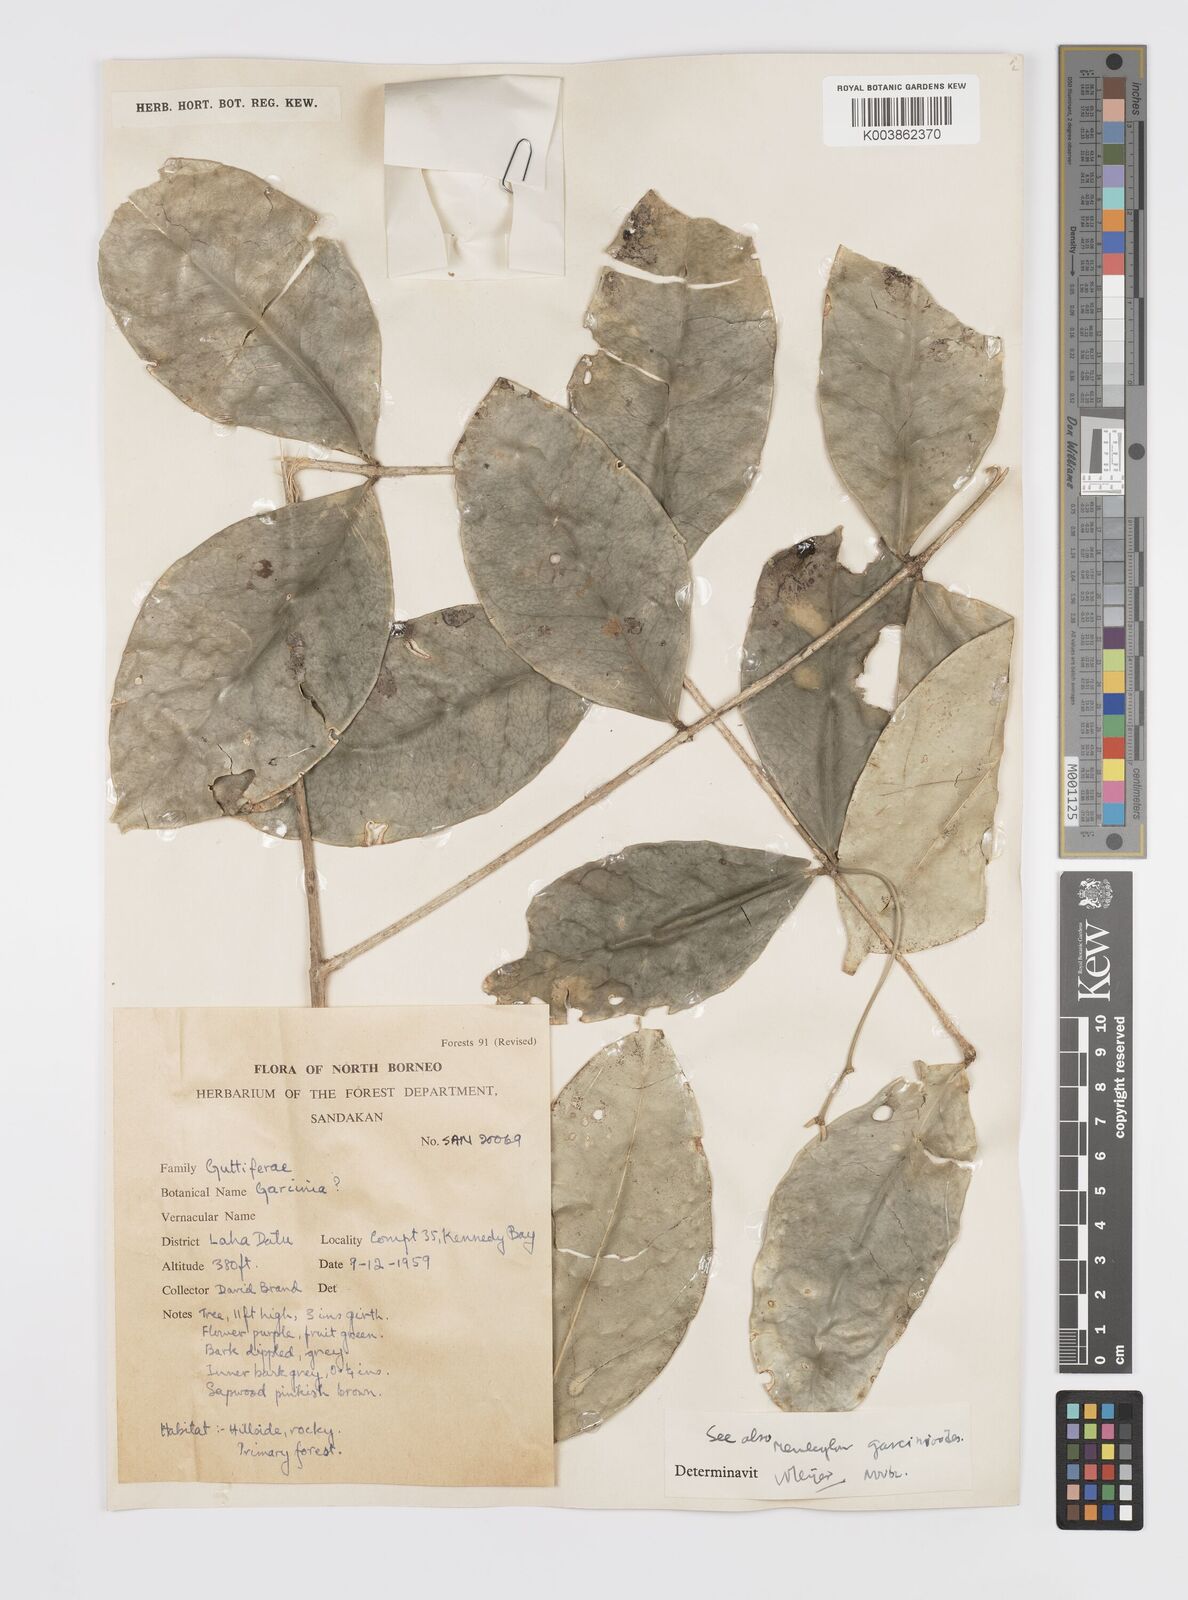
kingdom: Plantae
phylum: Tracheophyta
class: Magnoliopsida
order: Malpighiales
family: Clusiaceae
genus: Garcinia
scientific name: Garcinia
